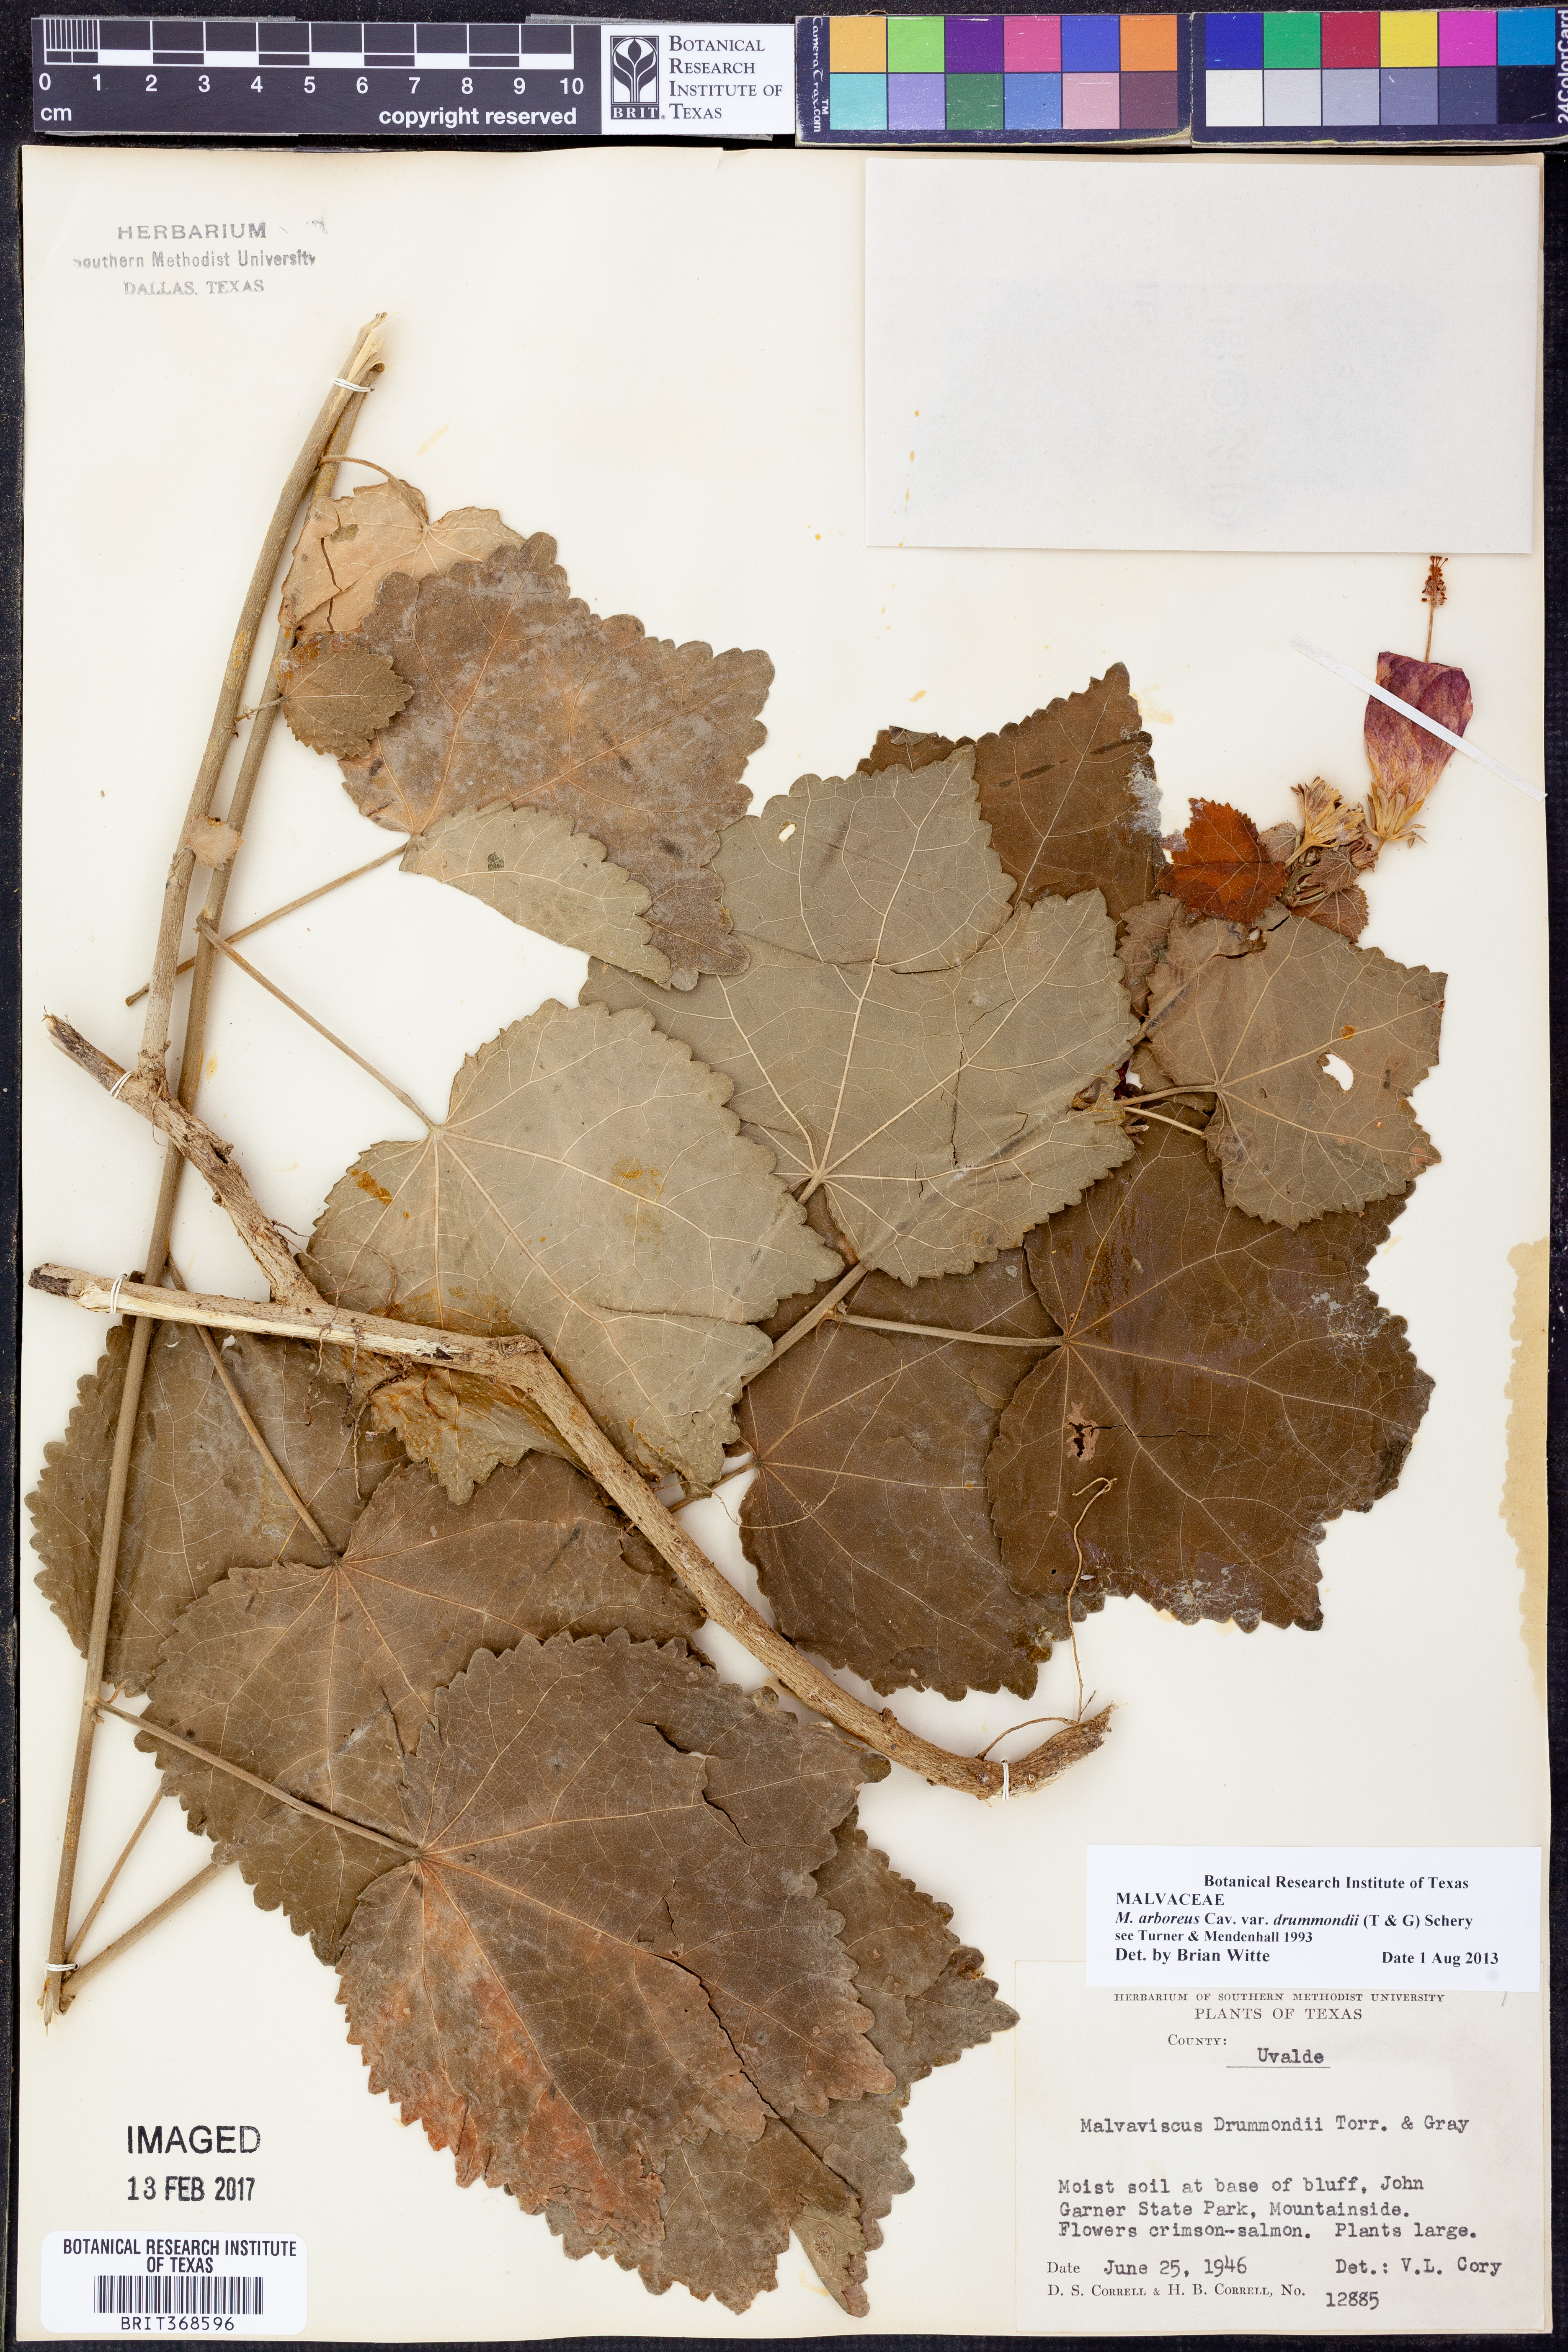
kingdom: Plantae
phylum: Tracheophyta
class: Magnoliopsida
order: Malvales
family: Malvaceae
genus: Malvaviscus
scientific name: Malvaviscus arboreus
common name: Wax mallow
